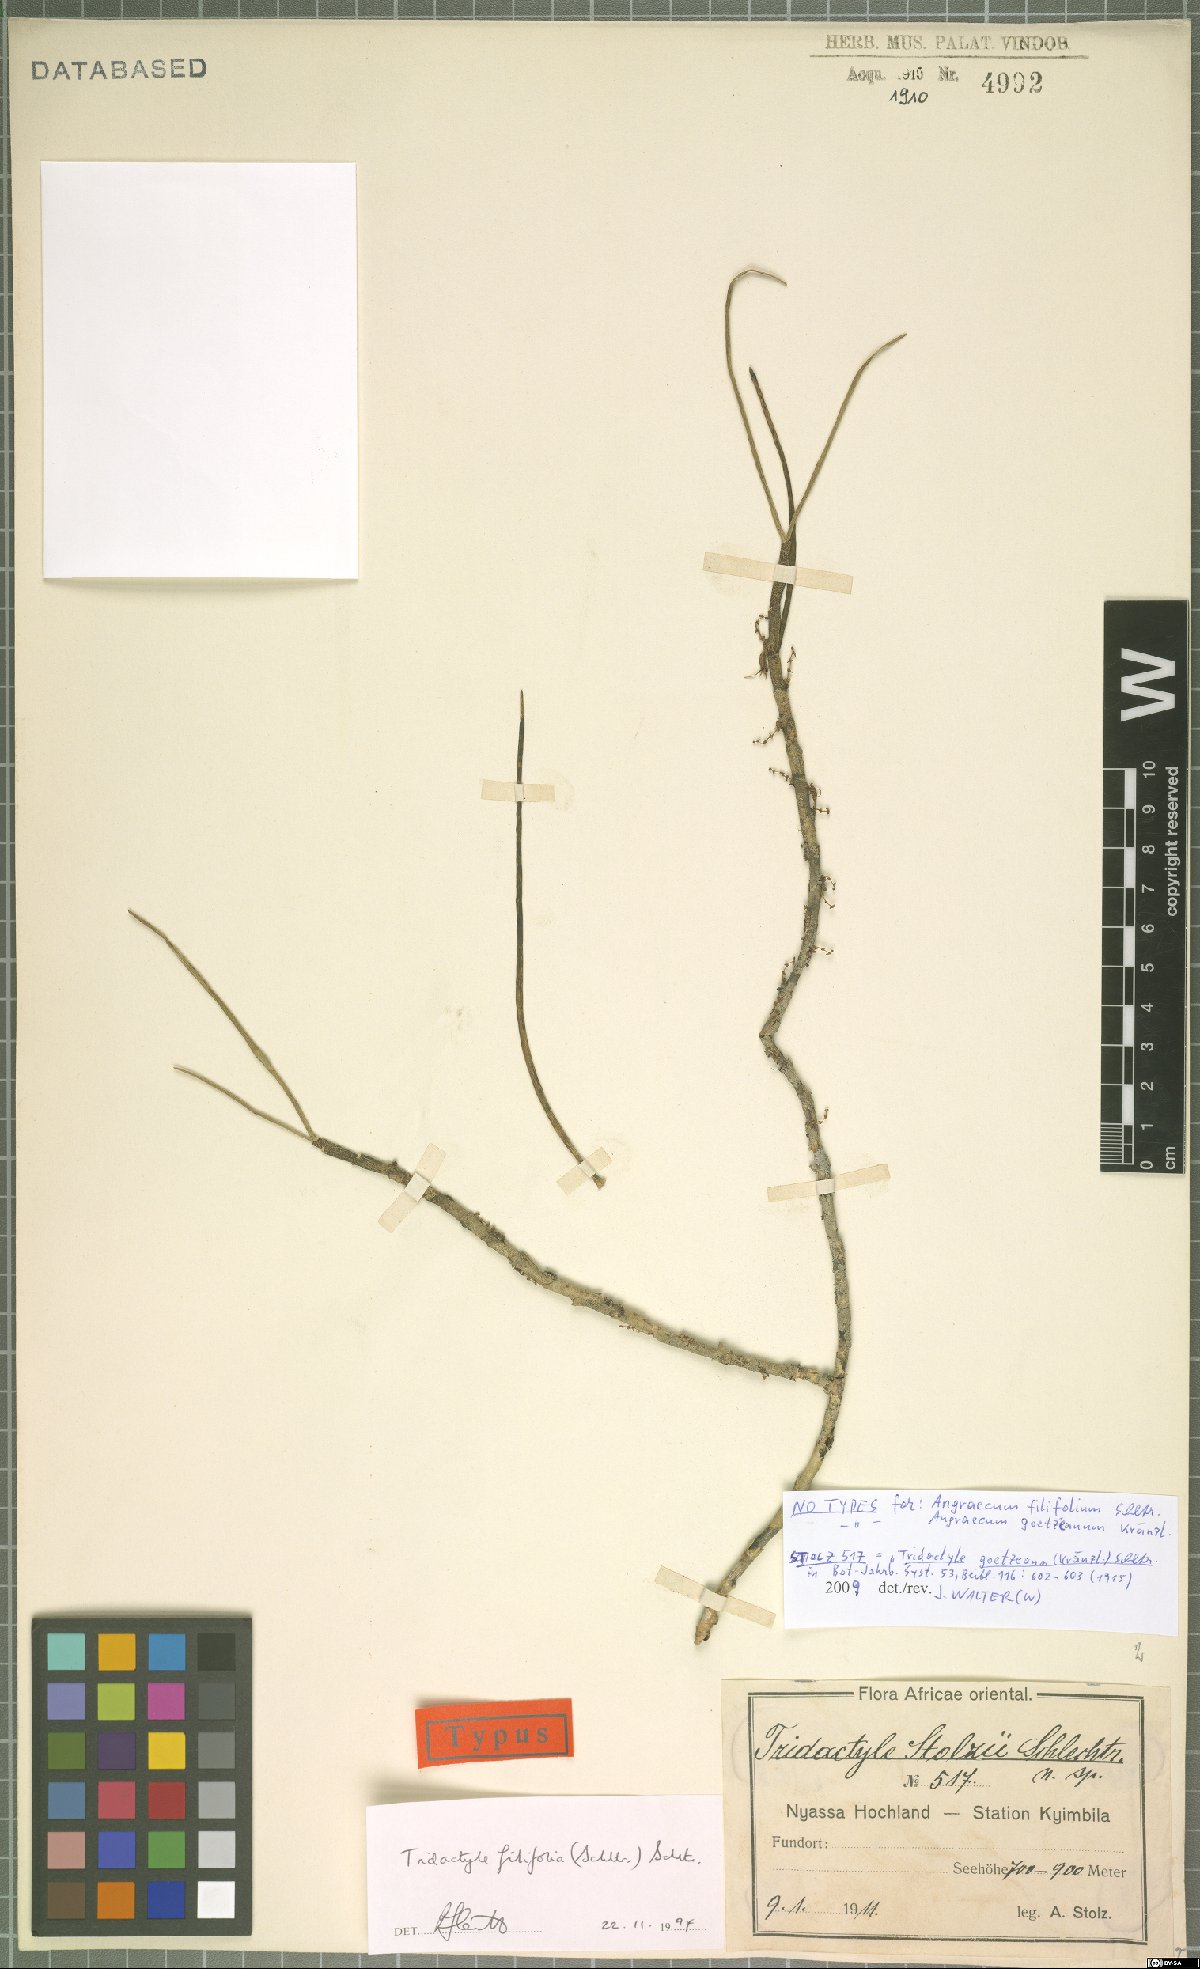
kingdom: Plantae
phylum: Tracheophyta
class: Liliopsida
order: Asparagales
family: Orchidaceae
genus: Tridactyle
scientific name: Tridactyle filifolia
